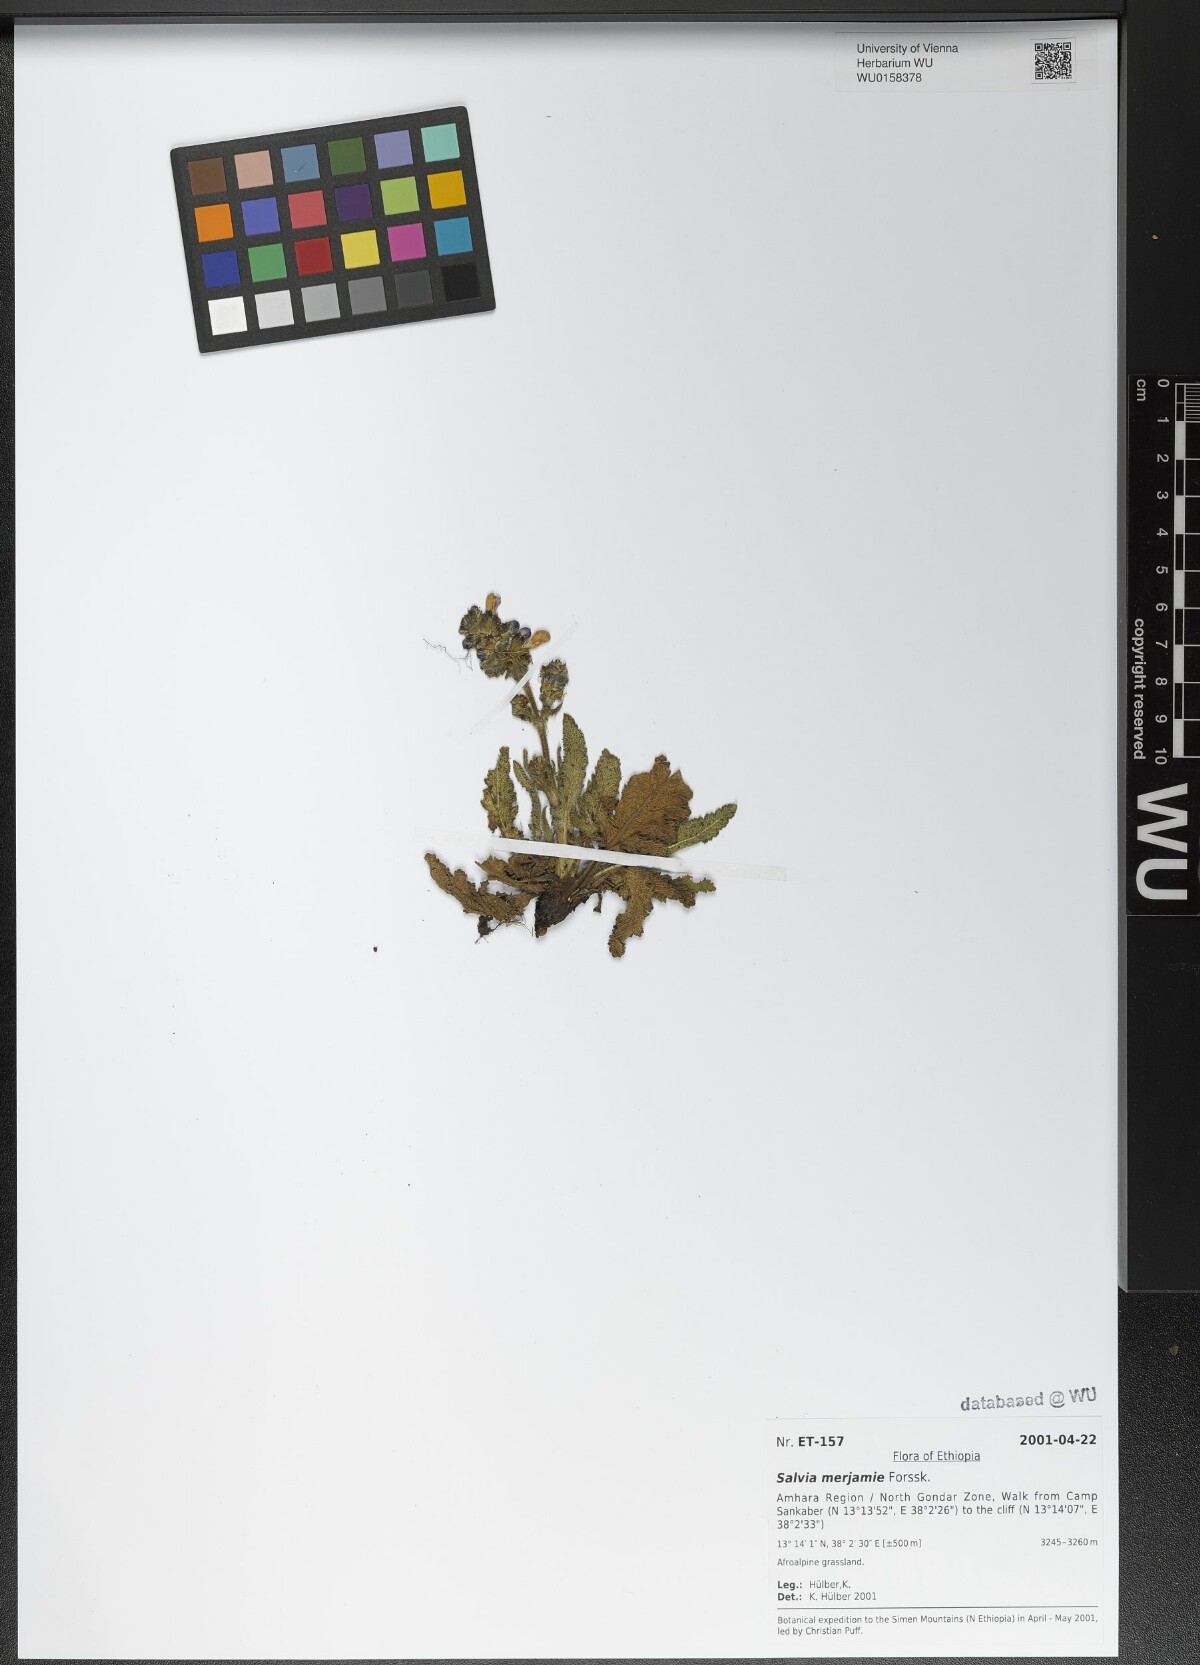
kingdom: Plantae
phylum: Tracheophyta
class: Magnoliopsida
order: Lamiales
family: Lamiaceae
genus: Salvia
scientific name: Salvia merjamie
